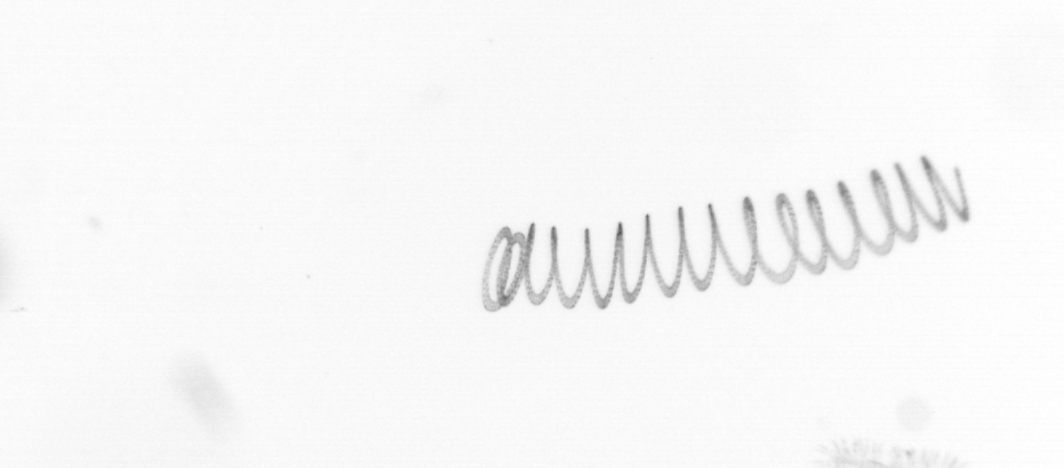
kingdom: Chromista
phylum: Ochrophyta
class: Bacillariophyceae
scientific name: Bacillariophyceae
